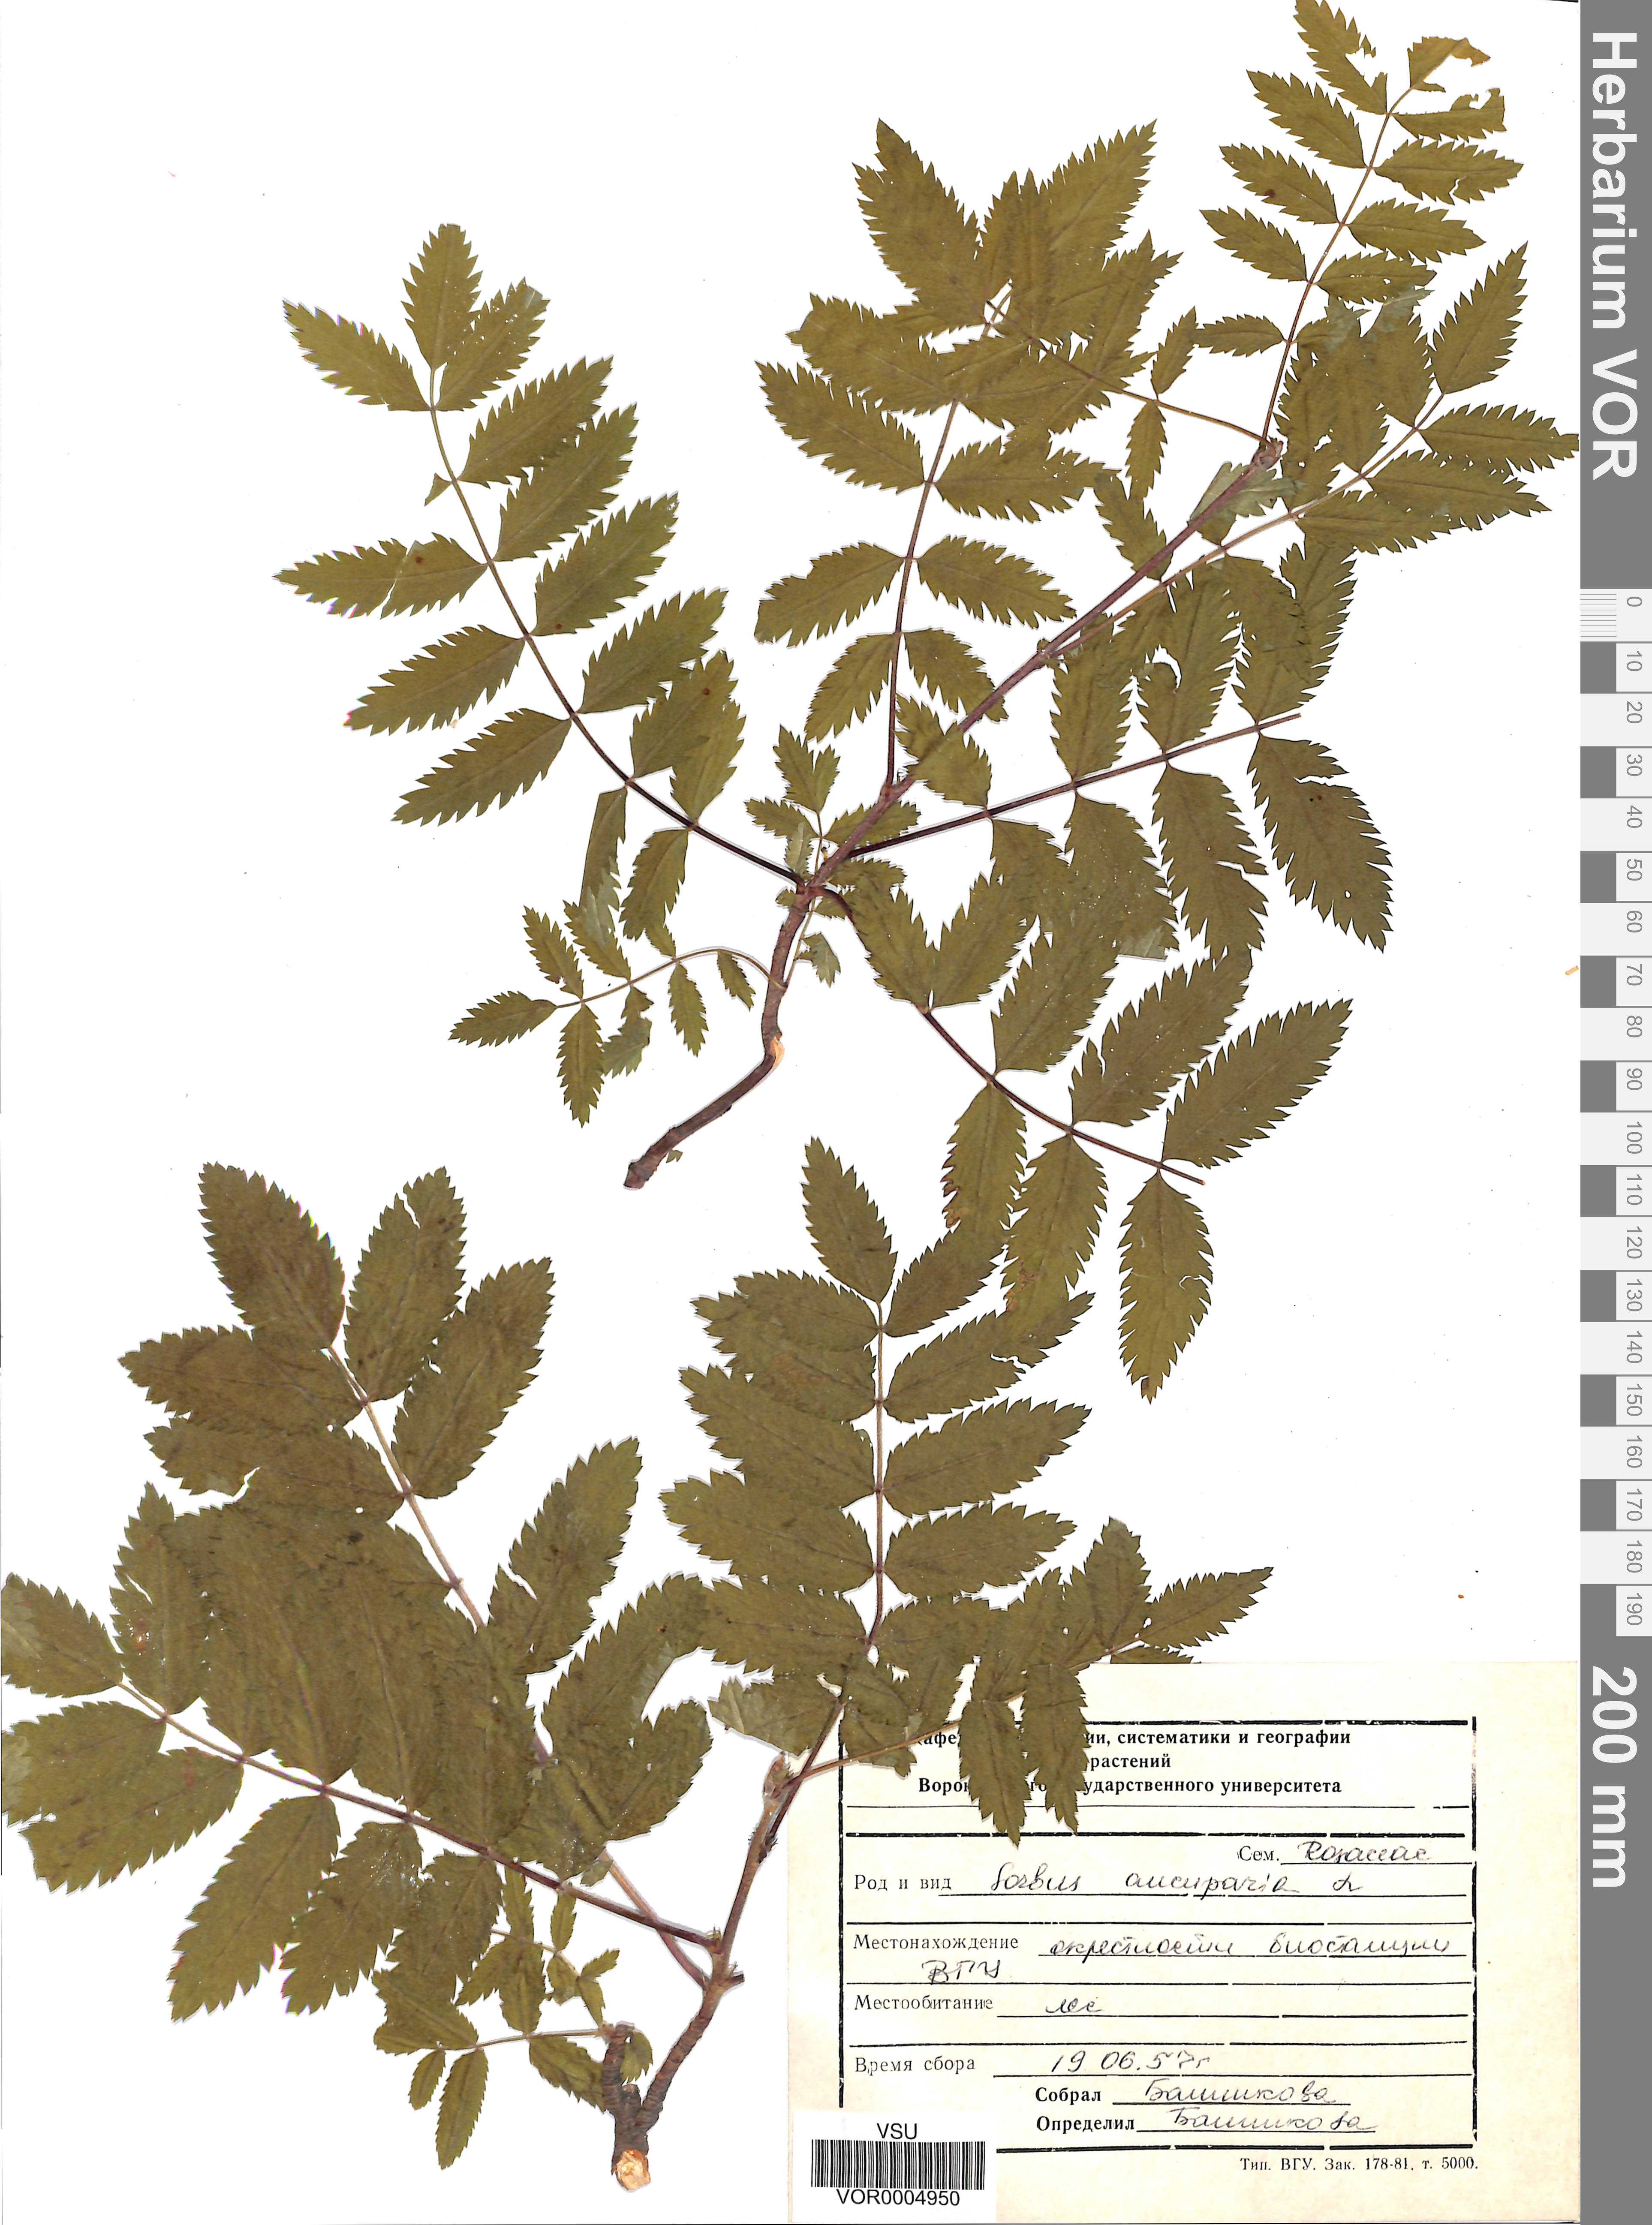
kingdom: Plantae
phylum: Tracheophyta
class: Magnoliopsida
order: Rosales
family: Rosaceae
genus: Sorbus
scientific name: Sorbus aucuparia
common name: Rowan
